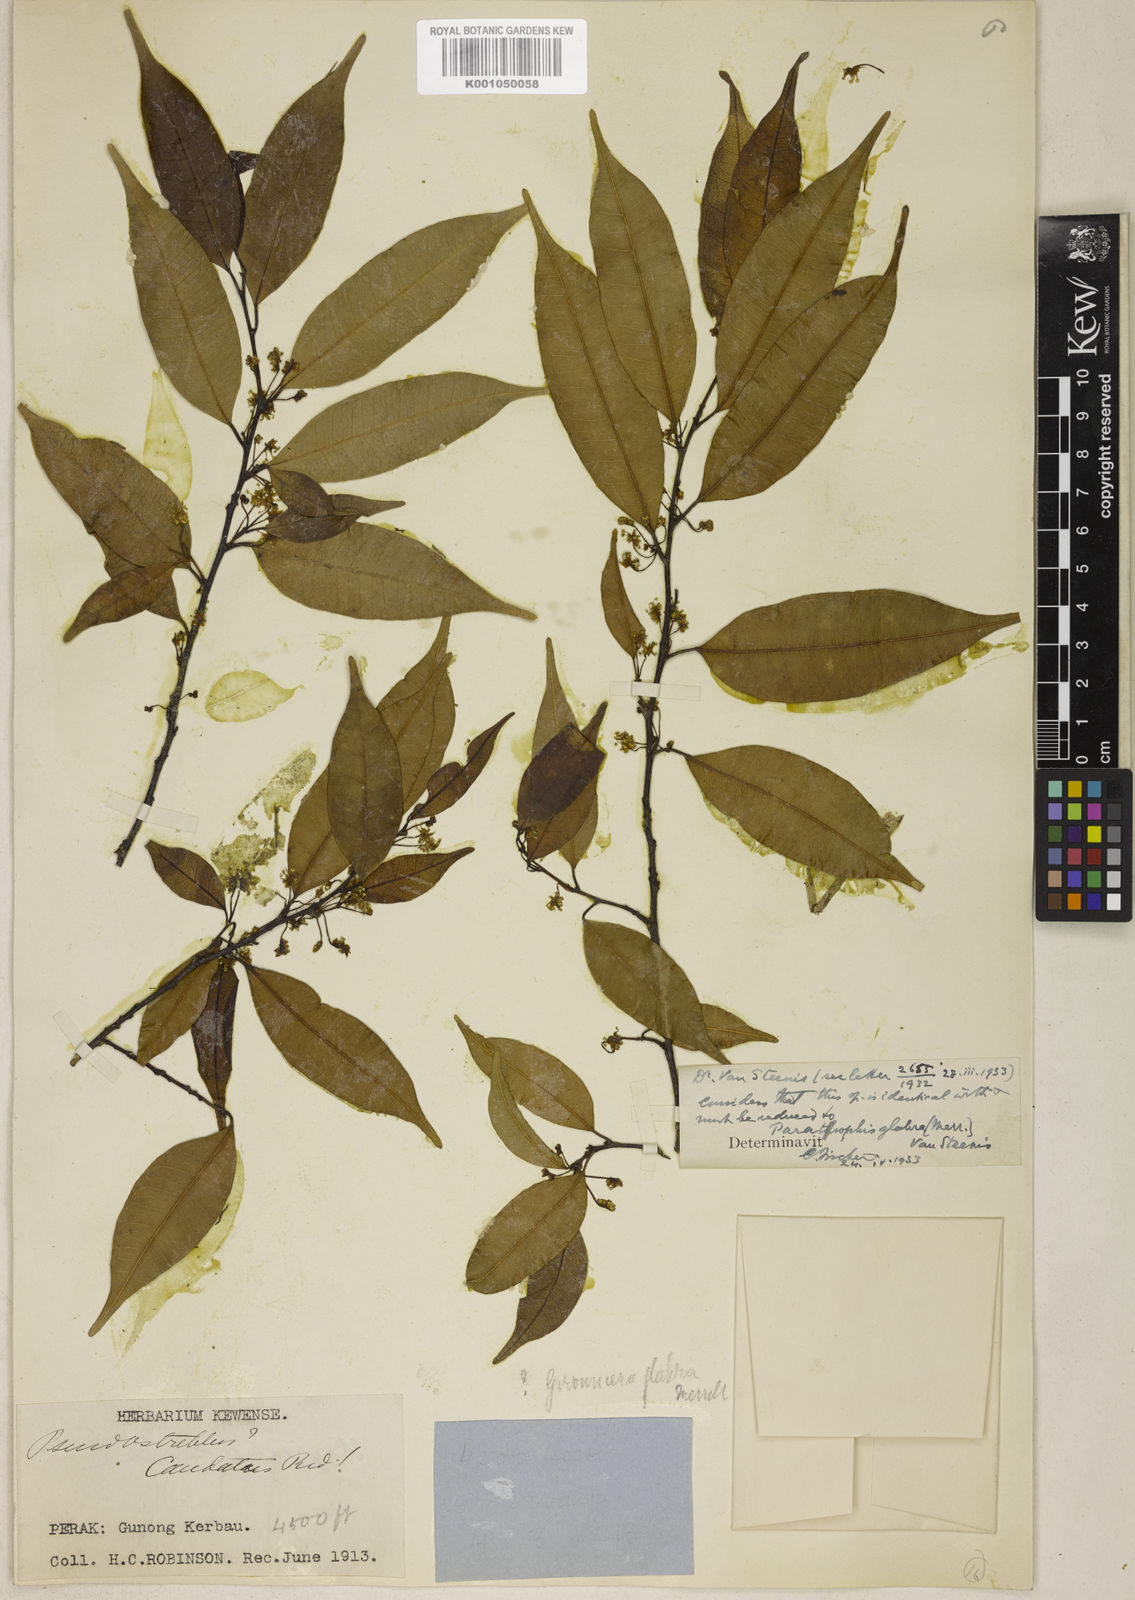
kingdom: Plantae
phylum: Tracheophyta
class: Magnoliopsida
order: Rosales
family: Moraceae
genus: Paratrophis
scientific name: Paratrophis glabra
